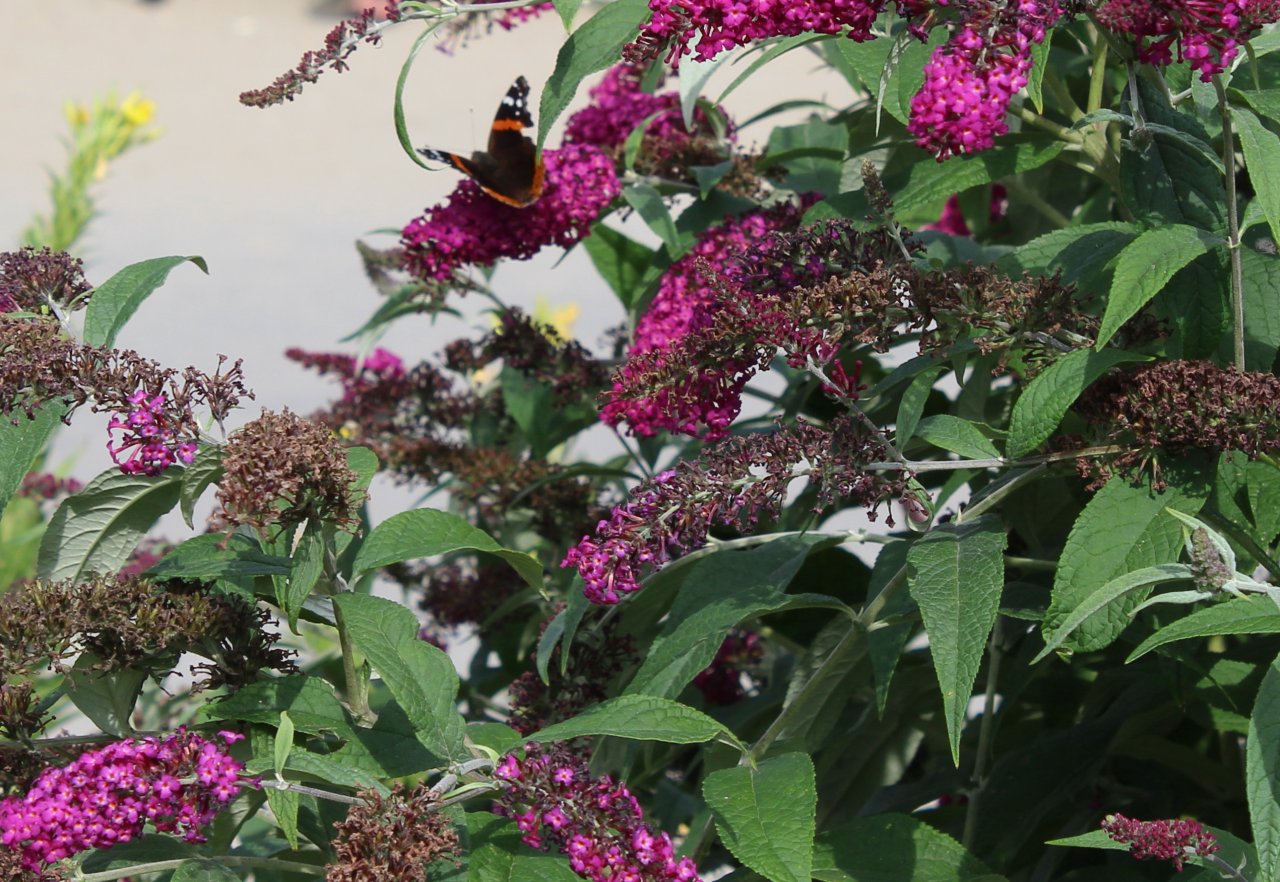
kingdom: Animalia
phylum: Arthropoda
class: Insecta
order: Lepidoptera
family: Nymphalidae
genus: Vanessa
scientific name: Vanessa atalanta
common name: Red Admiral
